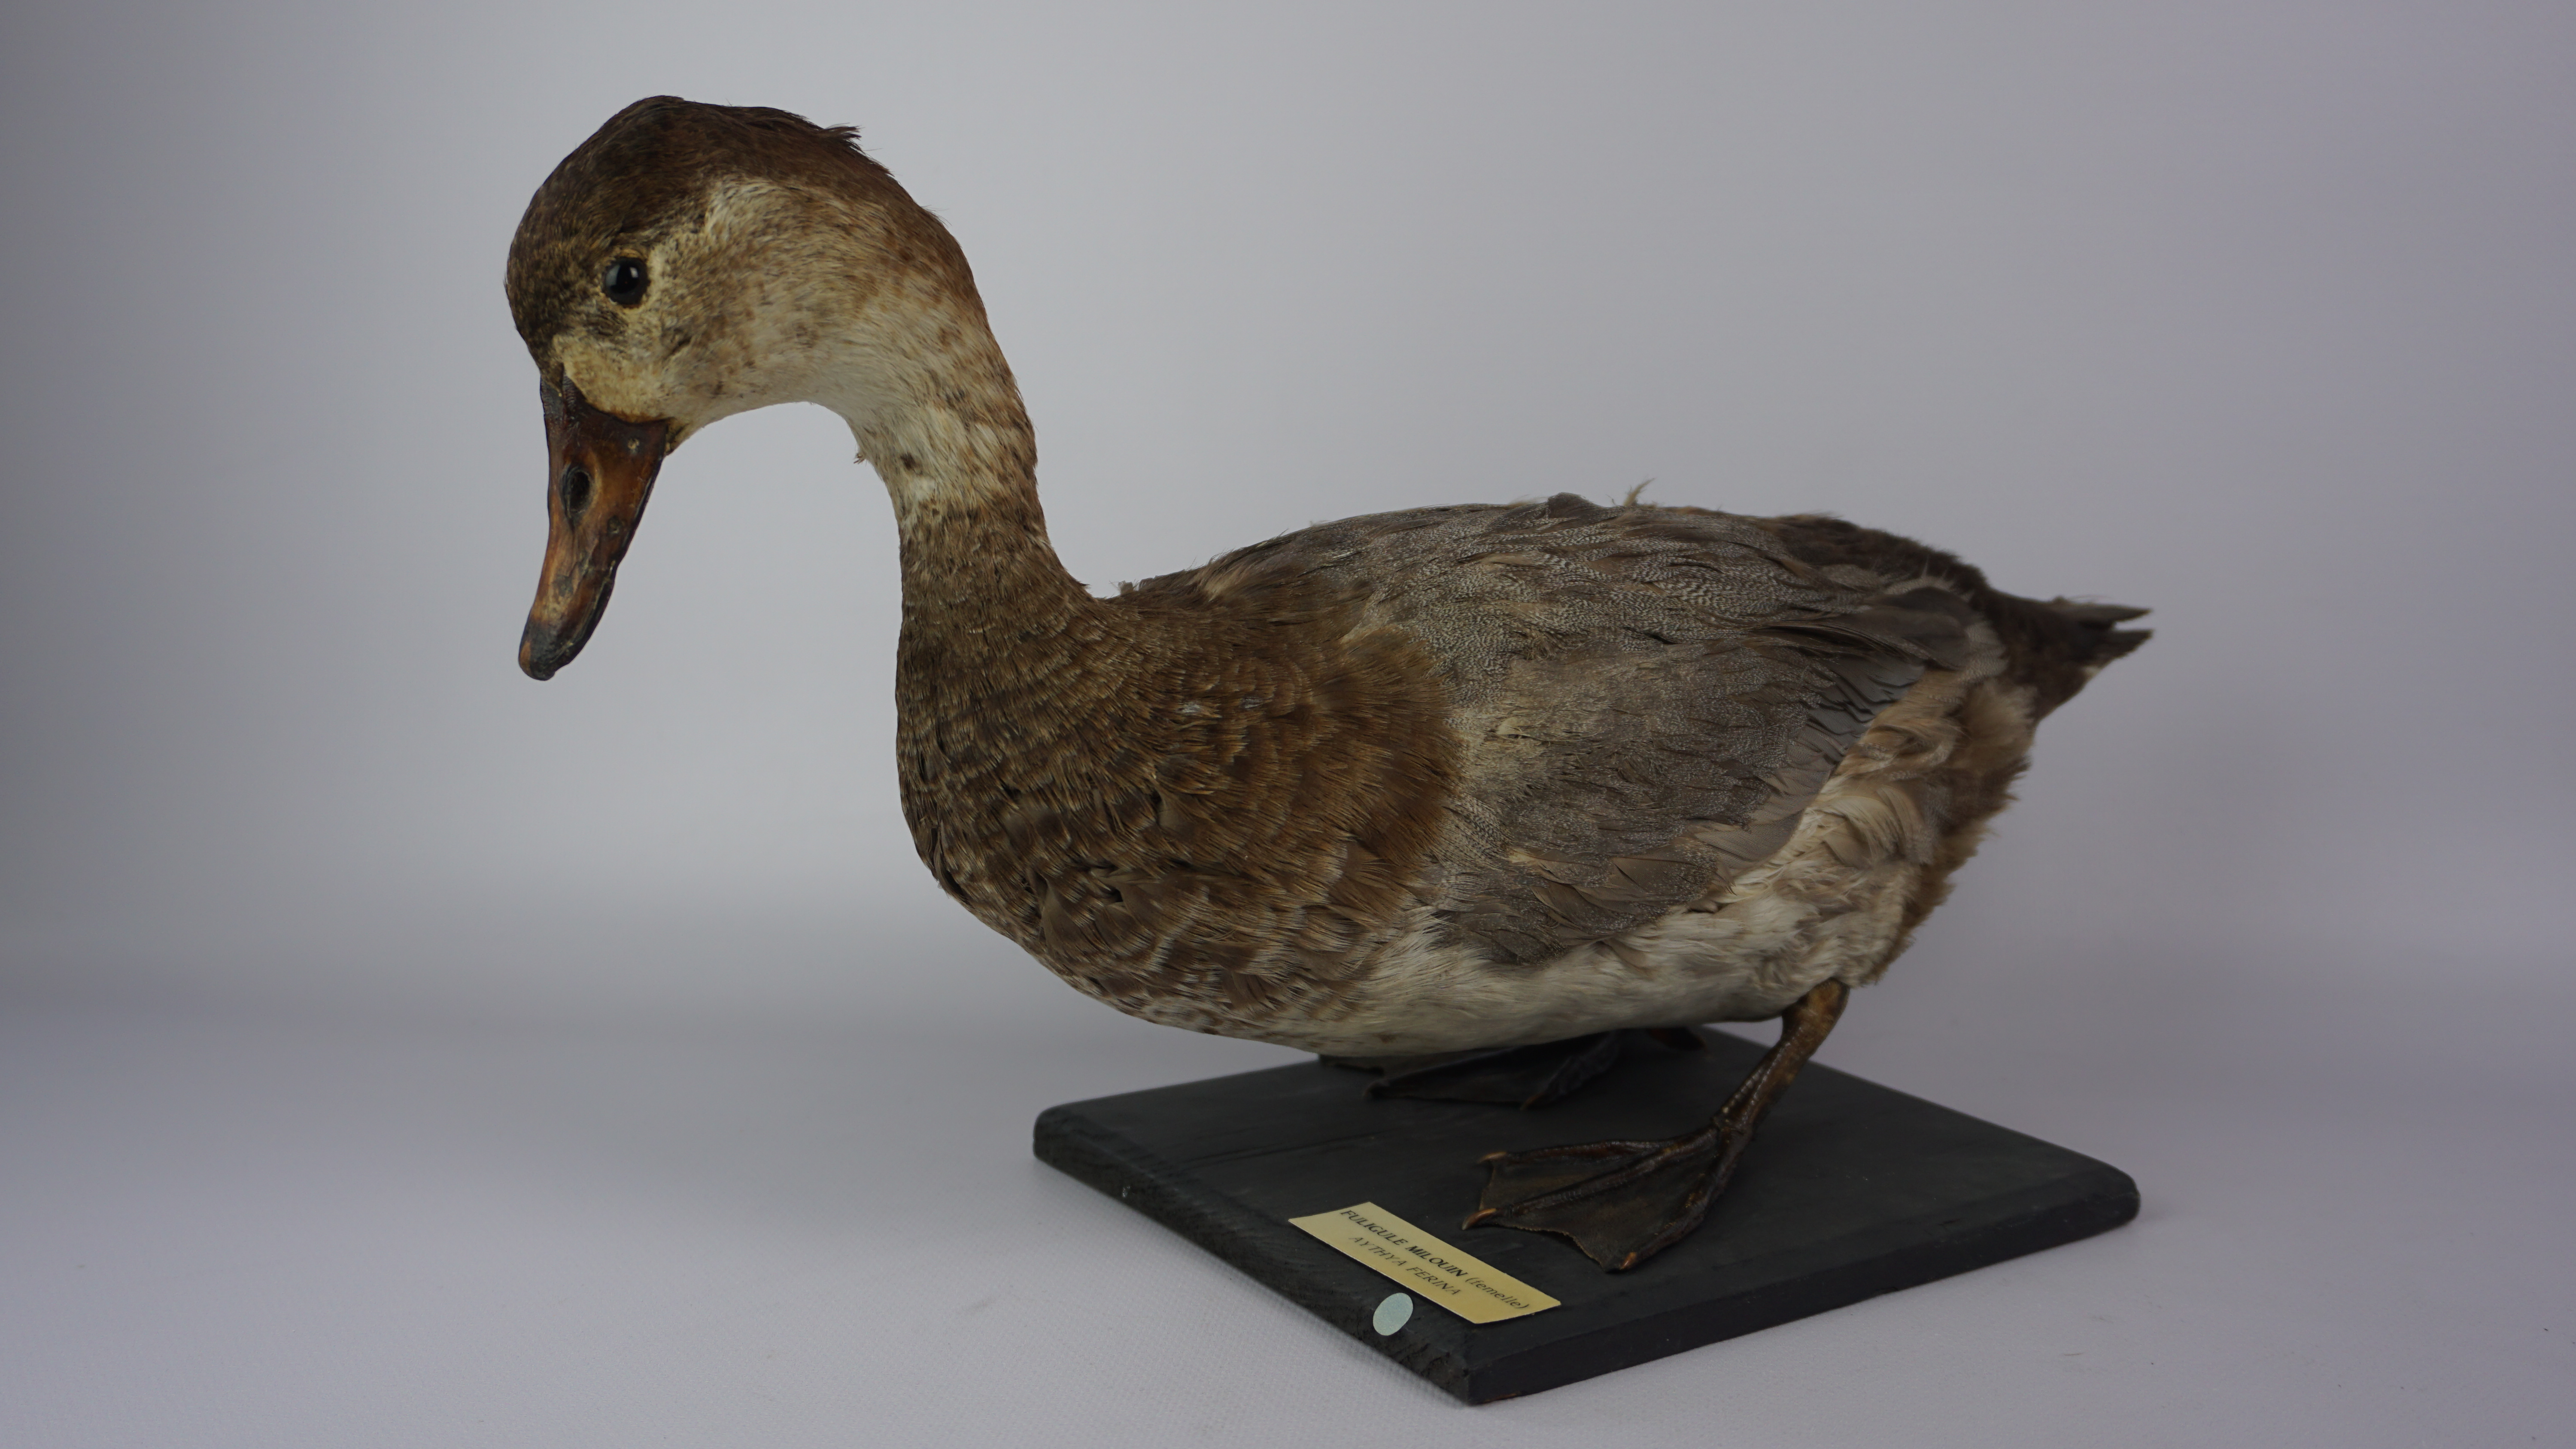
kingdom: Animalia
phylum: Chordata
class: Aves
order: Anseriformes
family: Anatidae
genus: Aythya
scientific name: Aythya ferina
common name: Common pochard
